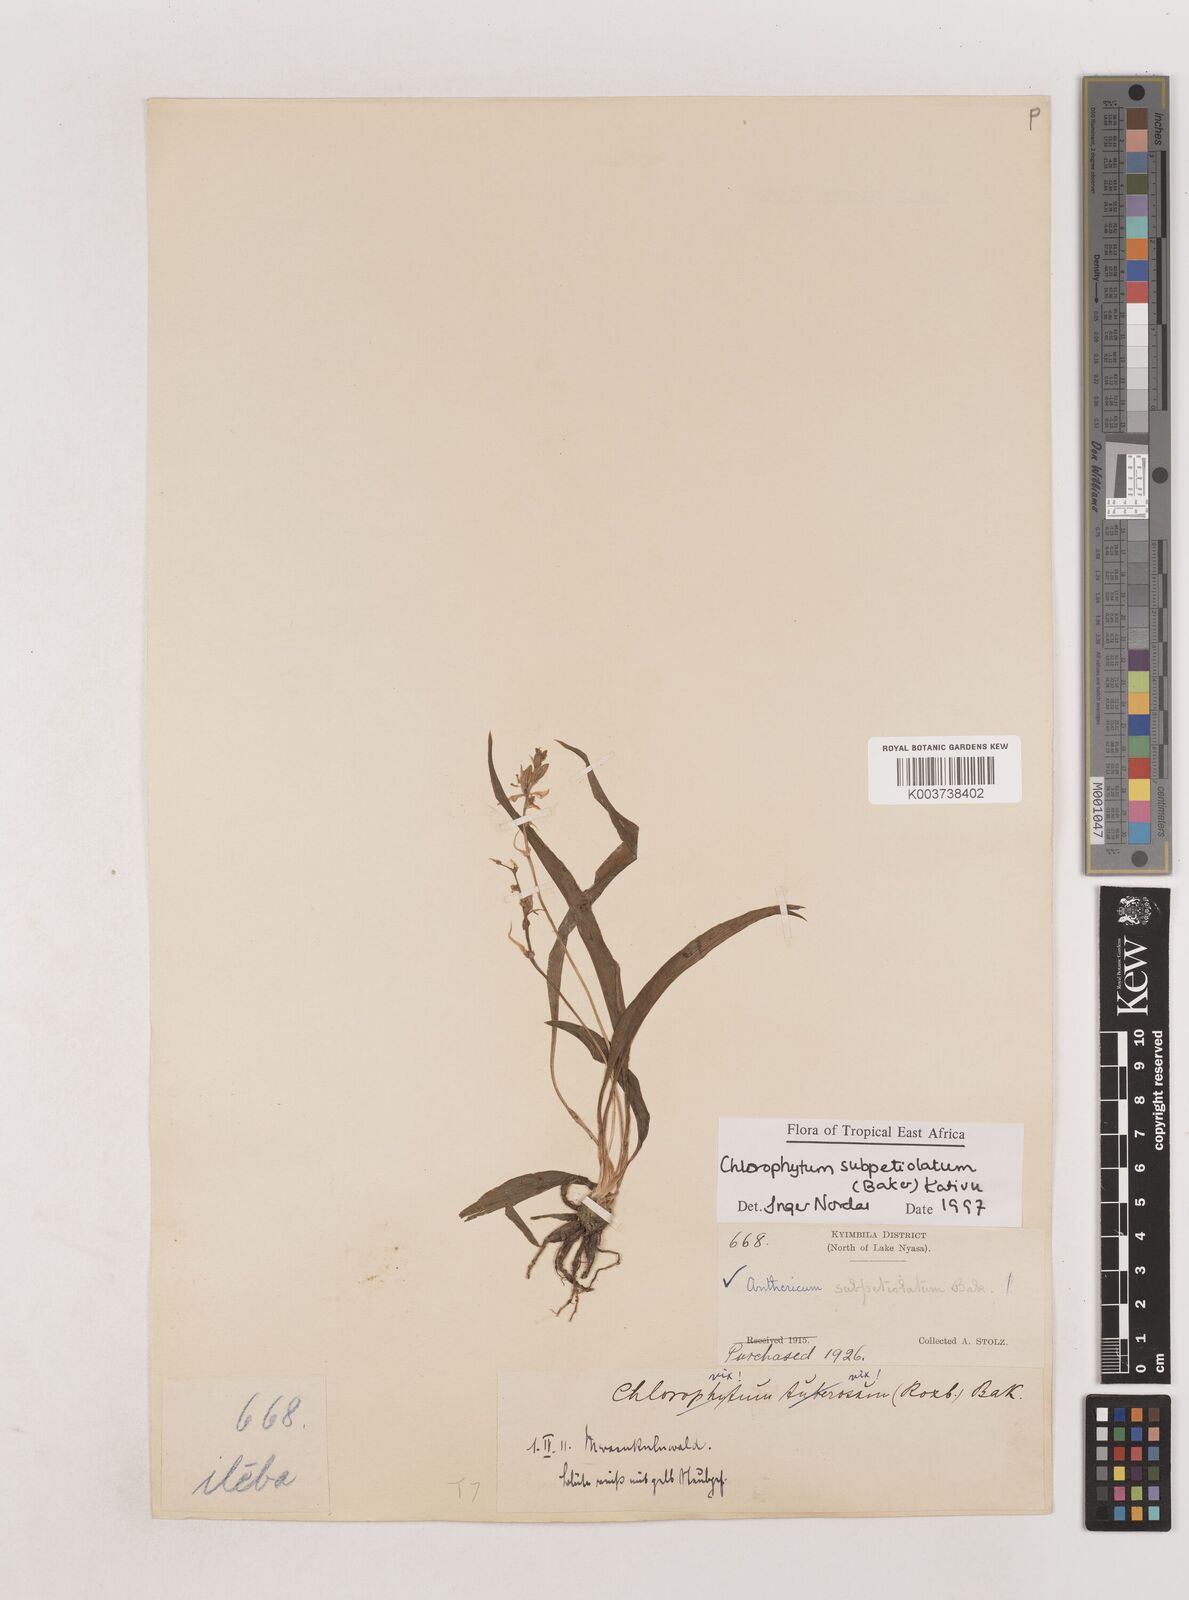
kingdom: Plantae
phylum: Tracheophyta
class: Liliopsida
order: Asparagales
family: Asparagaceae
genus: Chlorophytum
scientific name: Chlorophytum subpetiolatum
